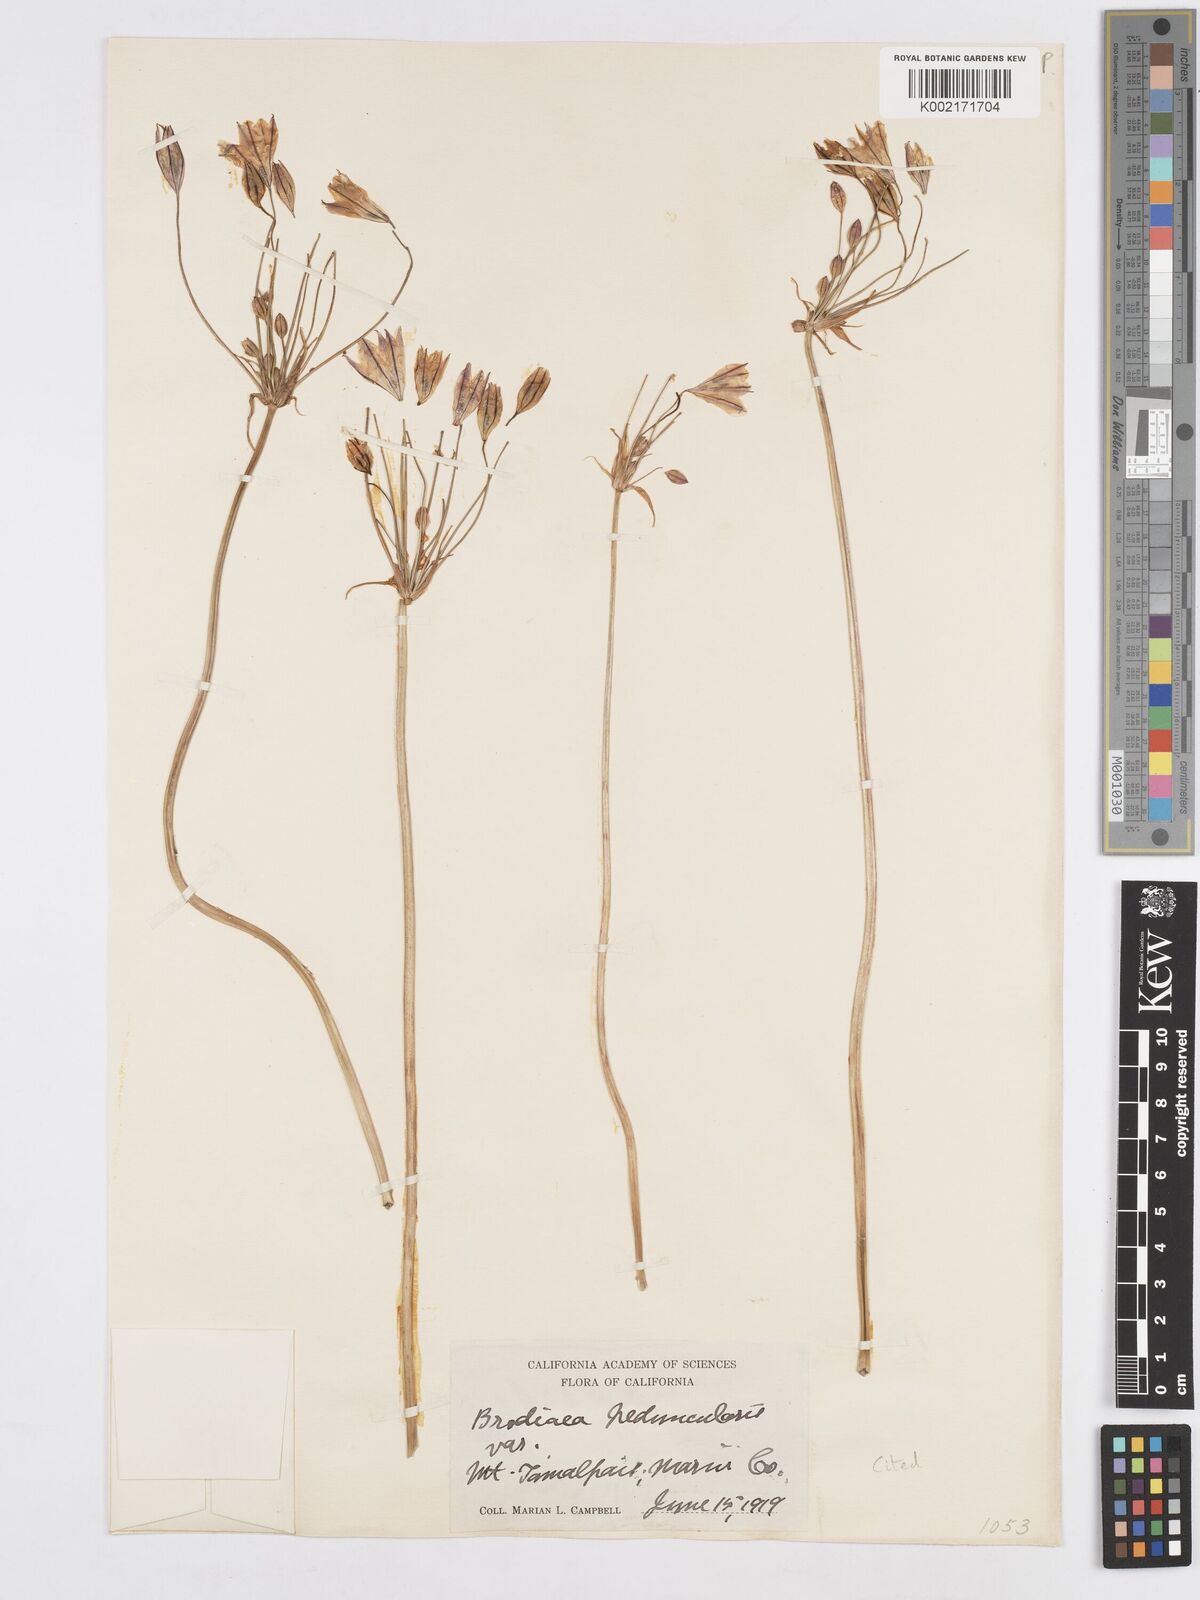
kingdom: Plantae
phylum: Tracheophyta
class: Liliopsida
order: Asparagales
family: Asparagaceae
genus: Triteleia
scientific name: Triteleia peduncularis
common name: Long-ray brodiaea
